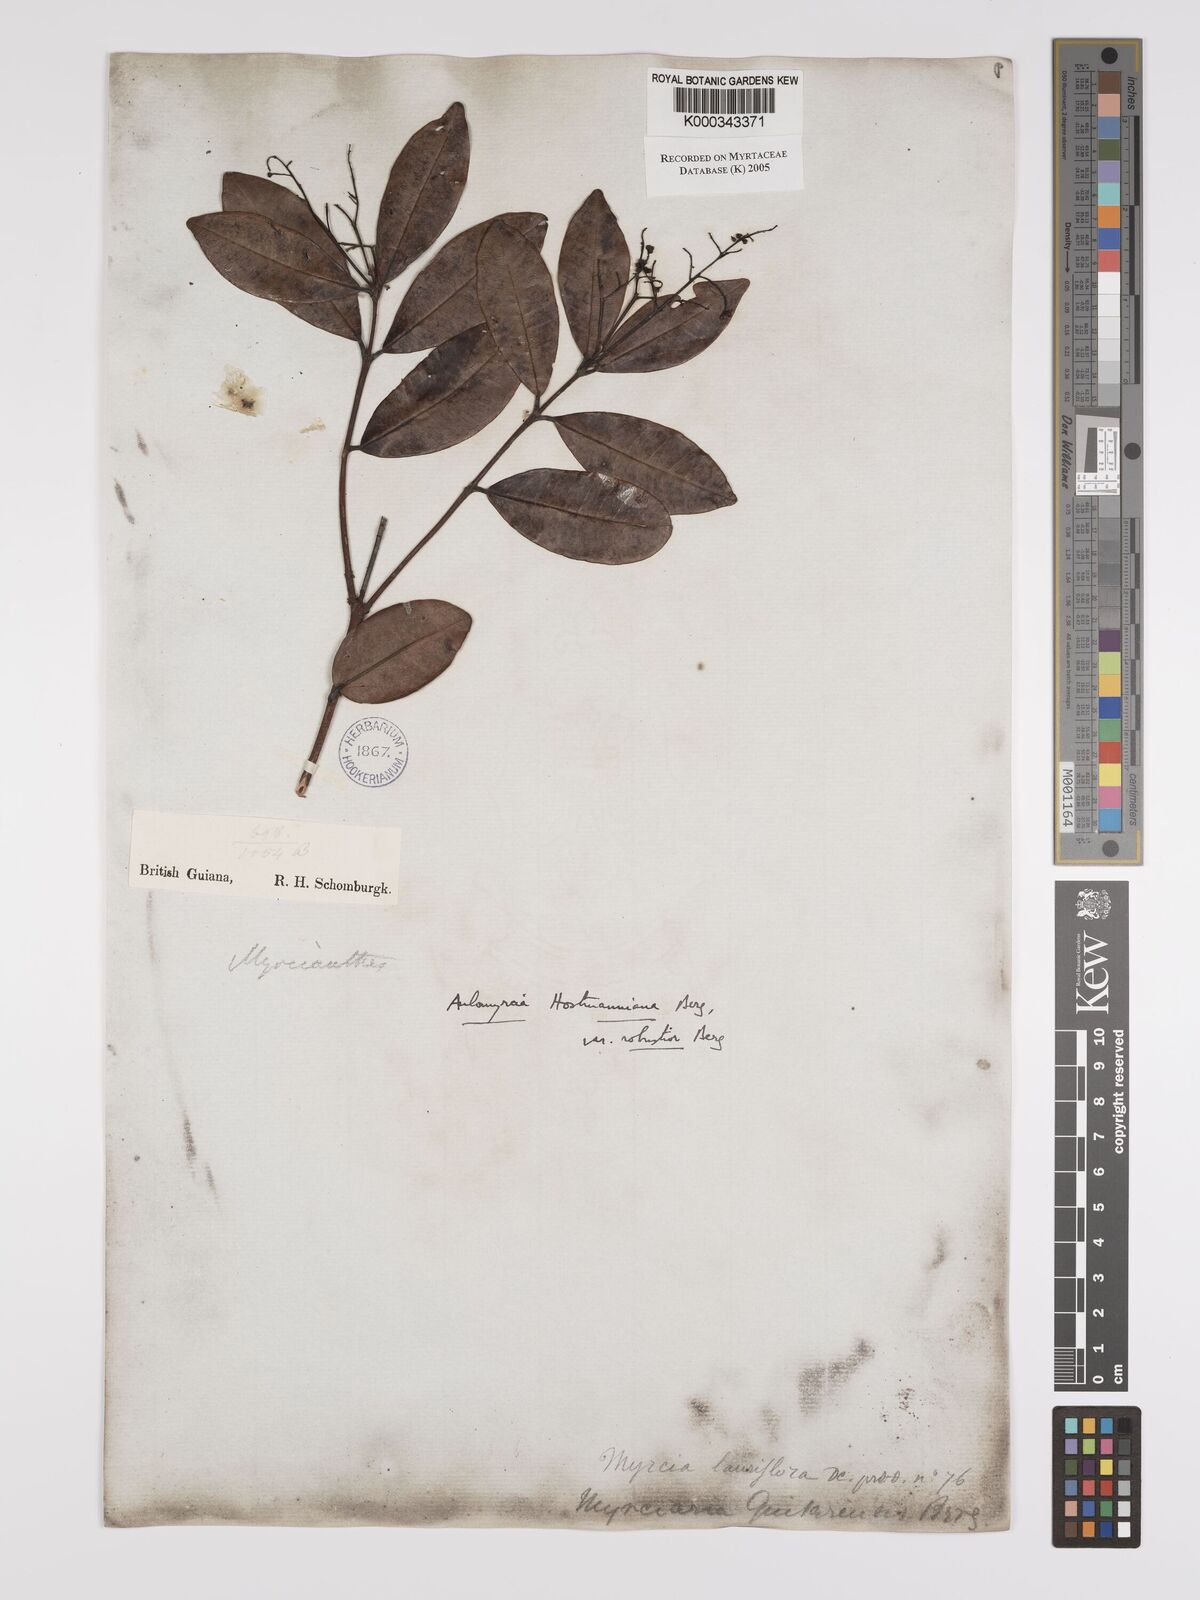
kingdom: Plantae
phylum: Tracheophyta
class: Magnoliopsida
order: Myrtales
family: Myrtaceae
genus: Myrcia
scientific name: Myrcia amazonica
